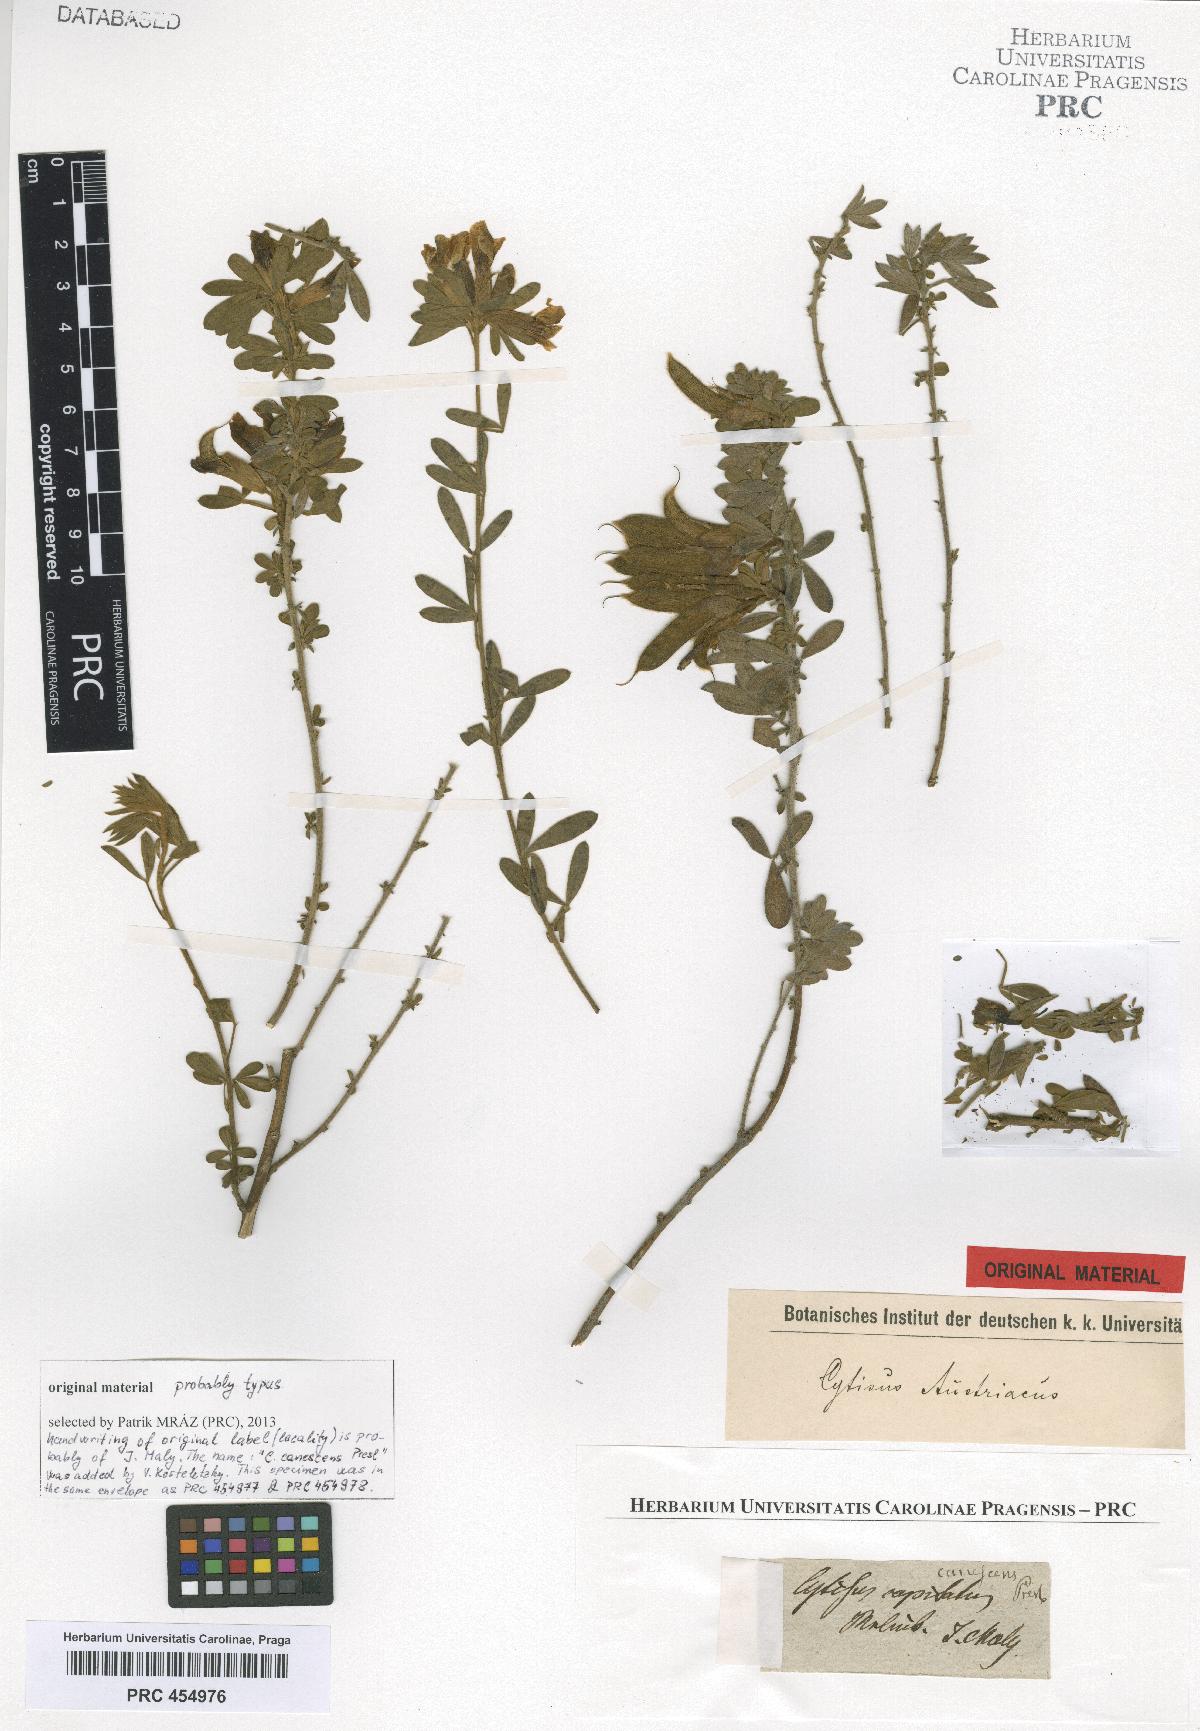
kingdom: Plantae
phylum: Tracheophyta
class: Magnoliopsida
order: Fabales
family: Fabaceae
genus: Chamaecytisus
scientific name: Chamaecytisus austriacus
